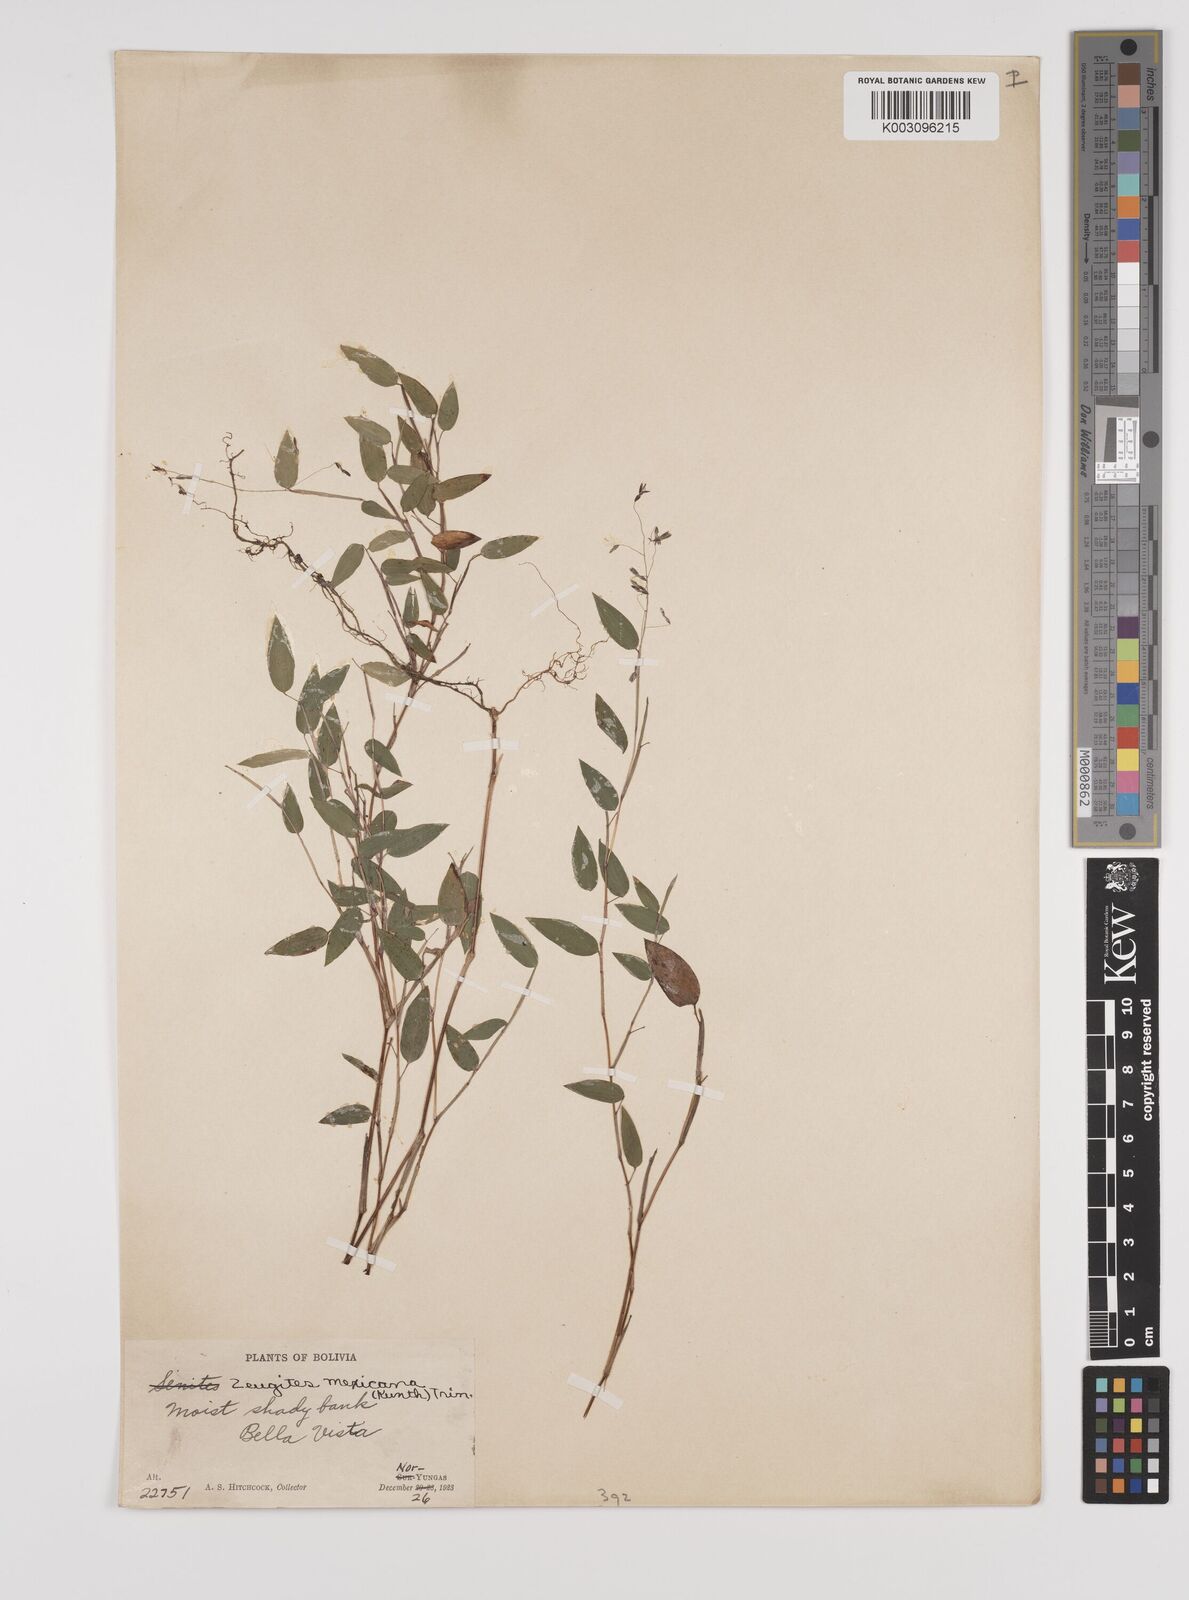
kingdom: Plantae
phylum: Tracheophyta
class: Liliopsida
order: Poales
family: Poaceae
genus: Zeugites
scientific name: Zeugites americanus
